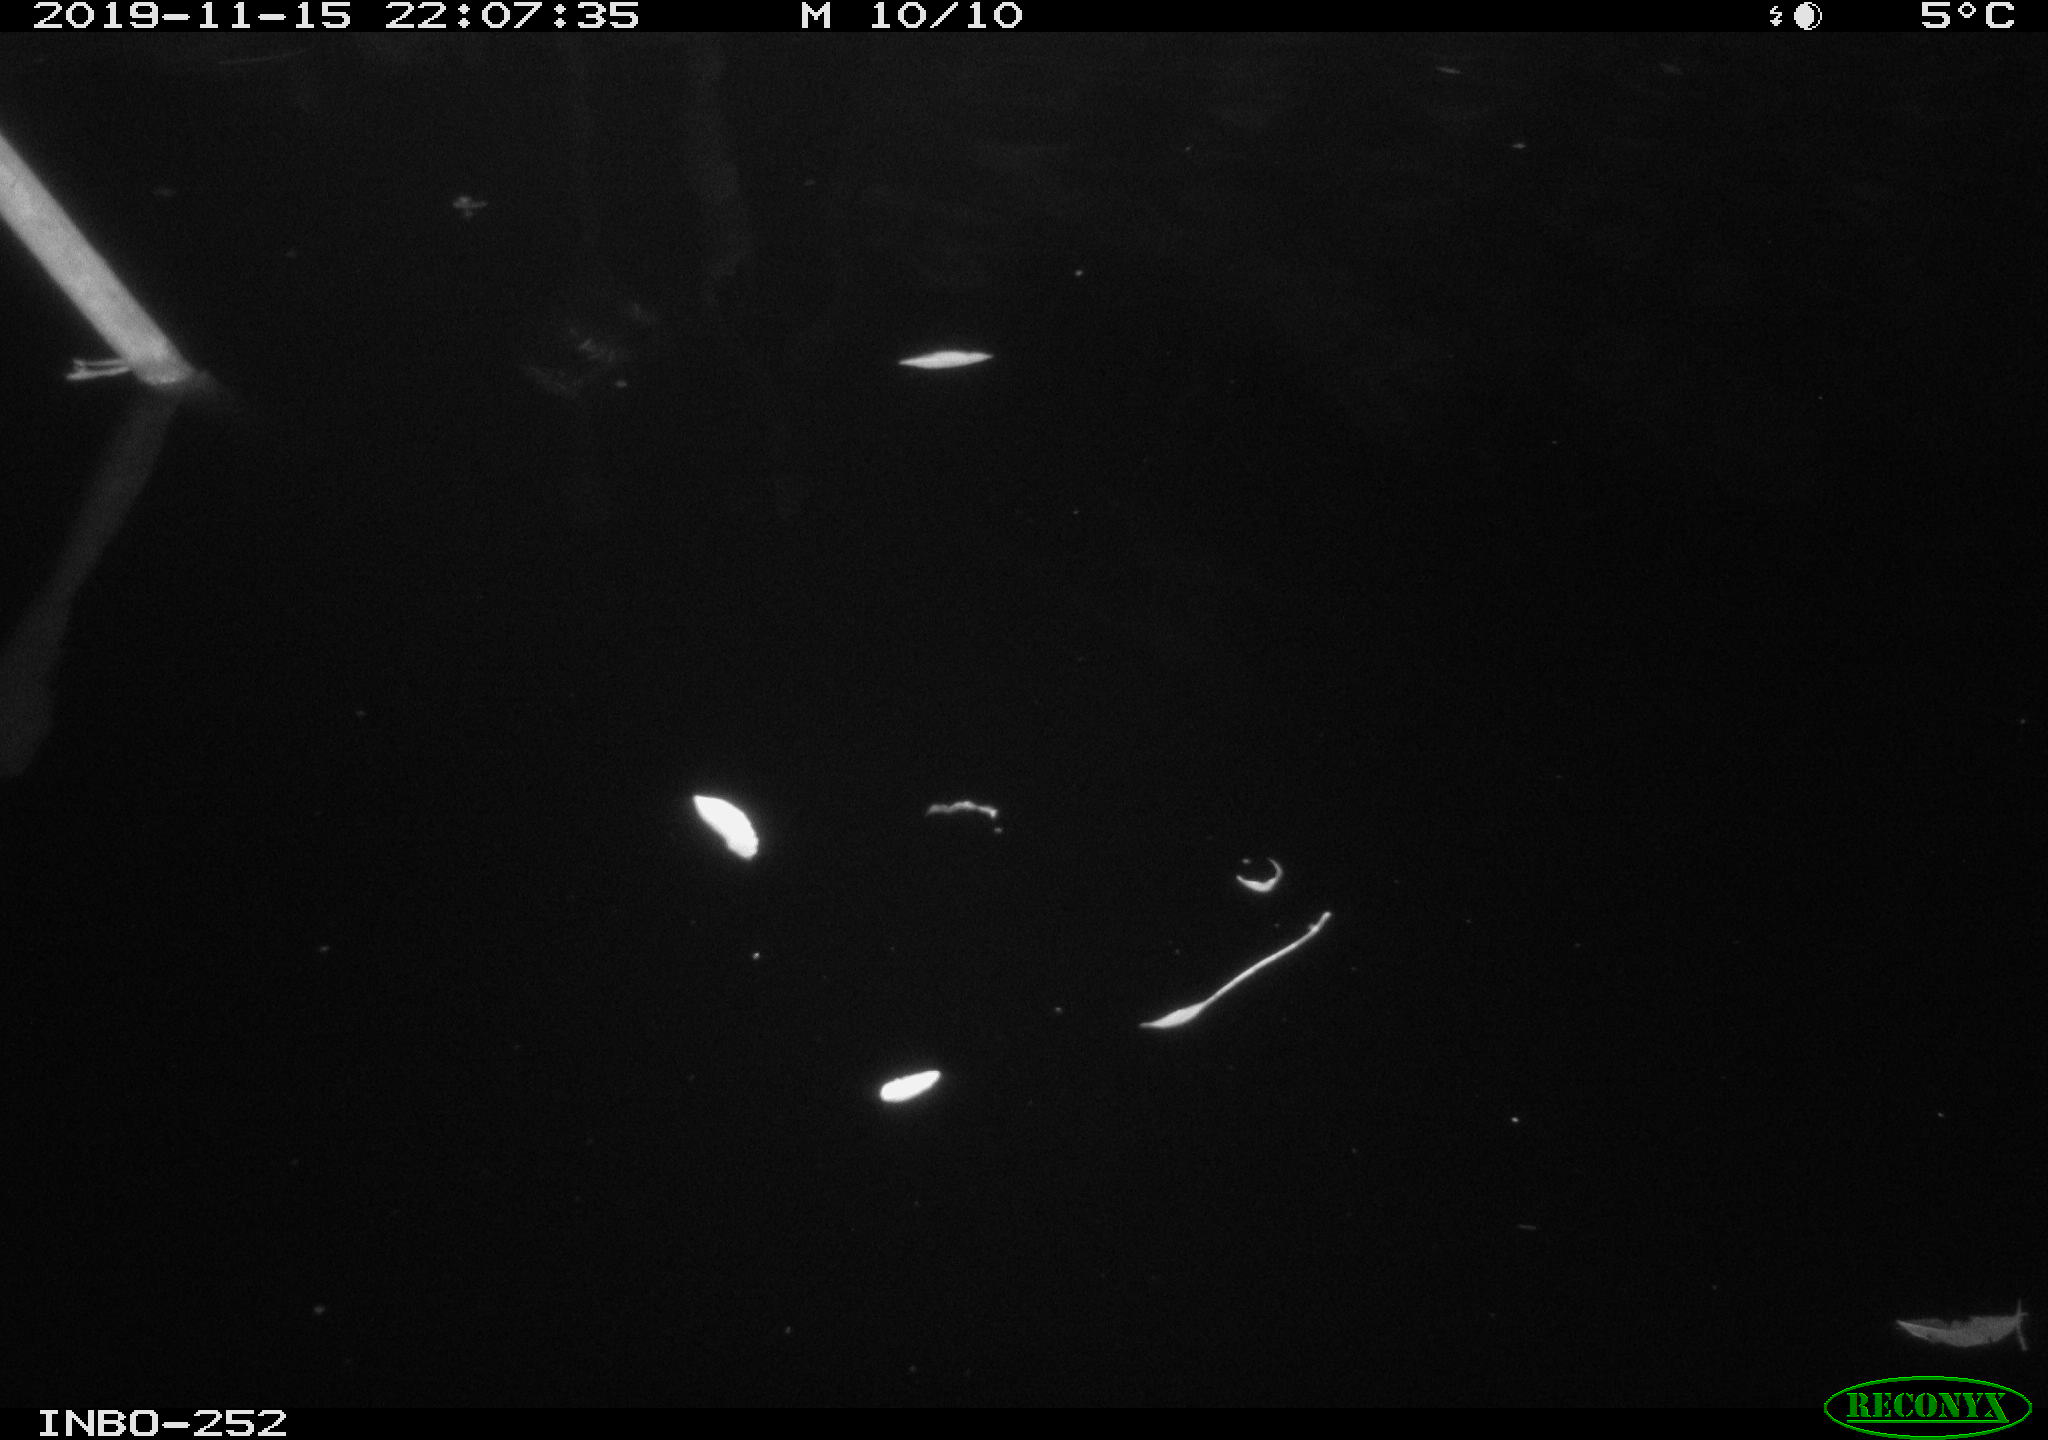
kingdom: Animalia
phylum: Chordata
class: Aves
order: Anseriformes
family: Anatidae
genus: Anas
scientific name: Anas platyrhynchos
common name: Mallard
